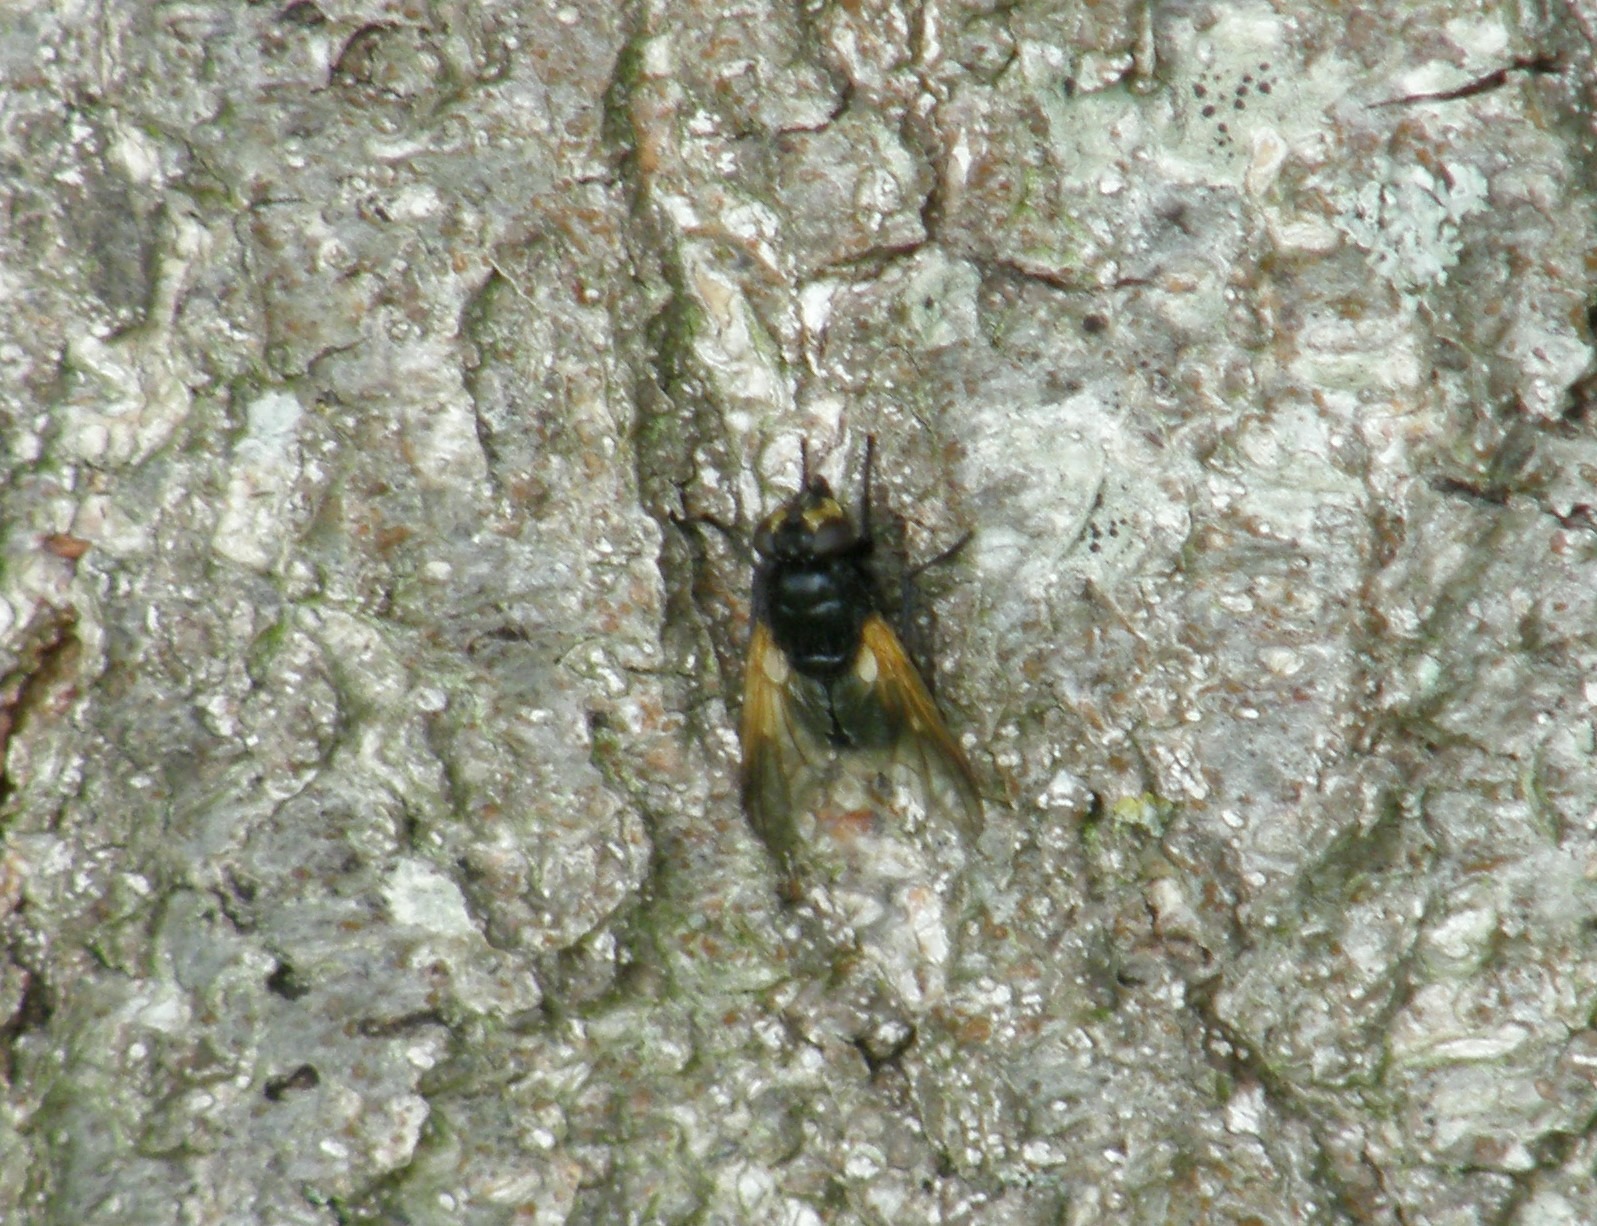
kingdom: Animalia
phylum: Arthropoda
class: Insecta
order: Diptera
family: Muscidae
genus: Mesembrina
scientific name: Mesembrina meridiana
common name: Gulvinget flue
